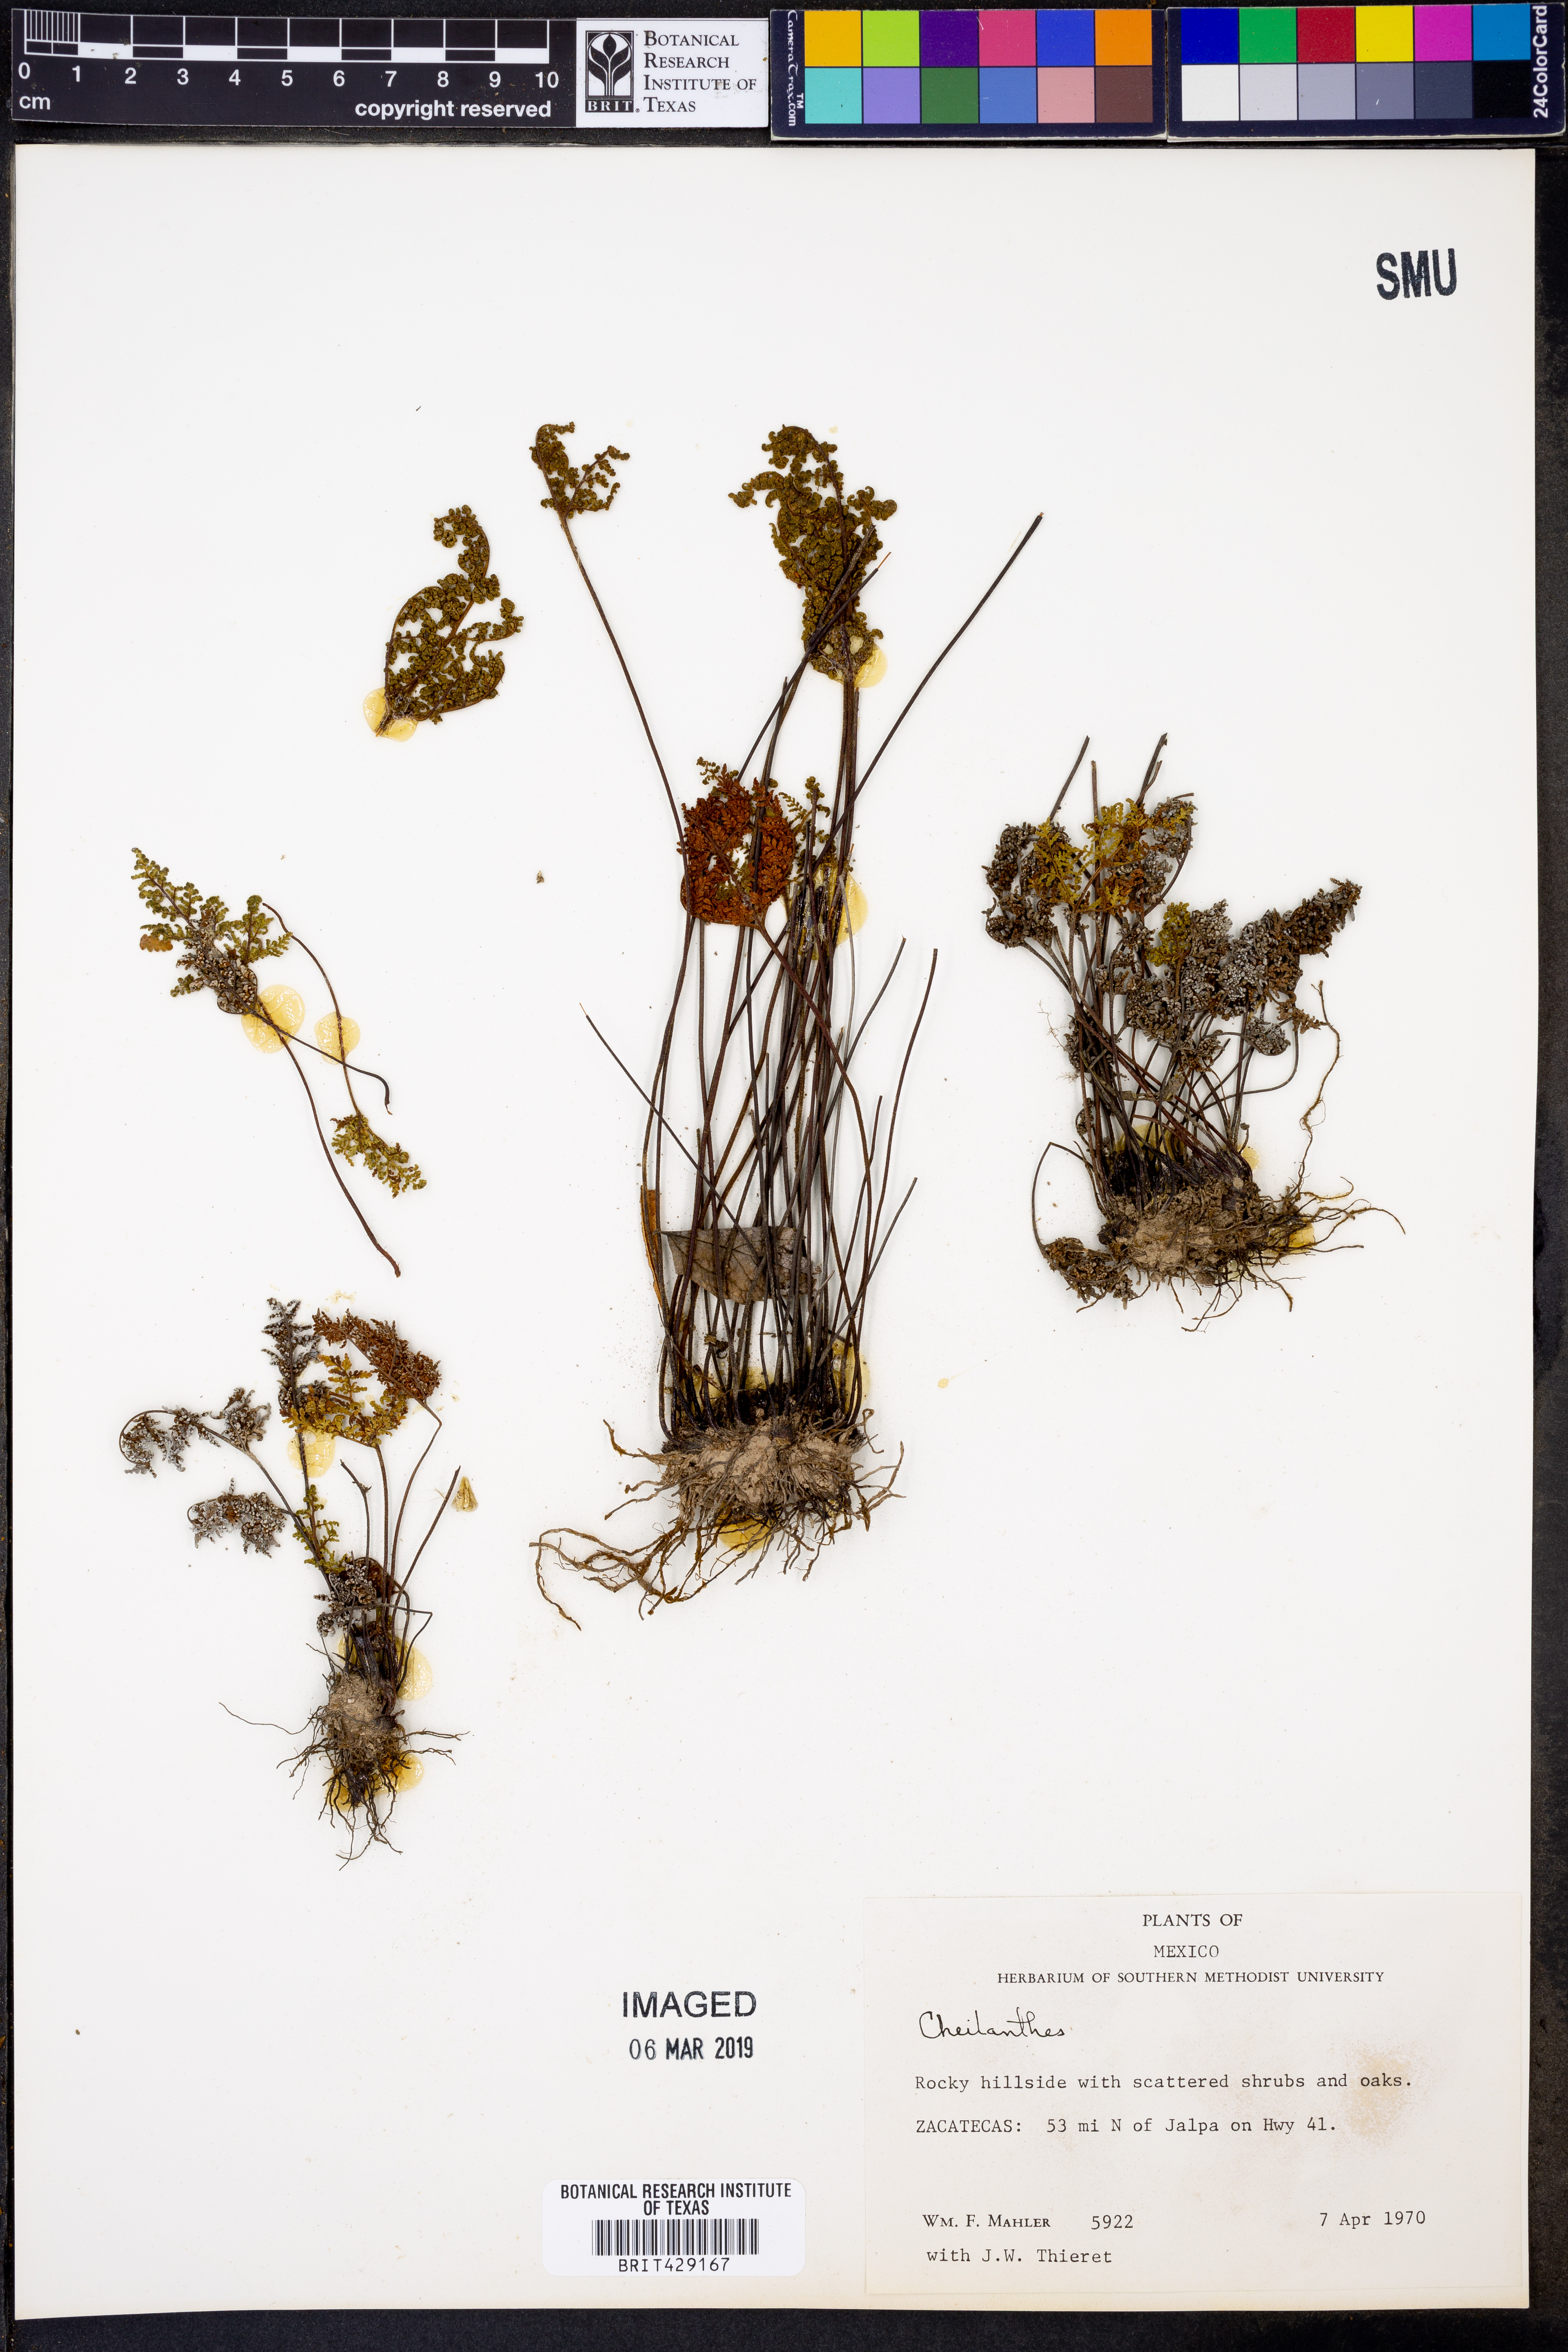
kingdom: Plantae
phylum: Tracheophyta
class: Polypodiopsida
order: Polypodiales
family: Pteridaceae
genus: Cheilanthes
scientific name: Cheilanthes
